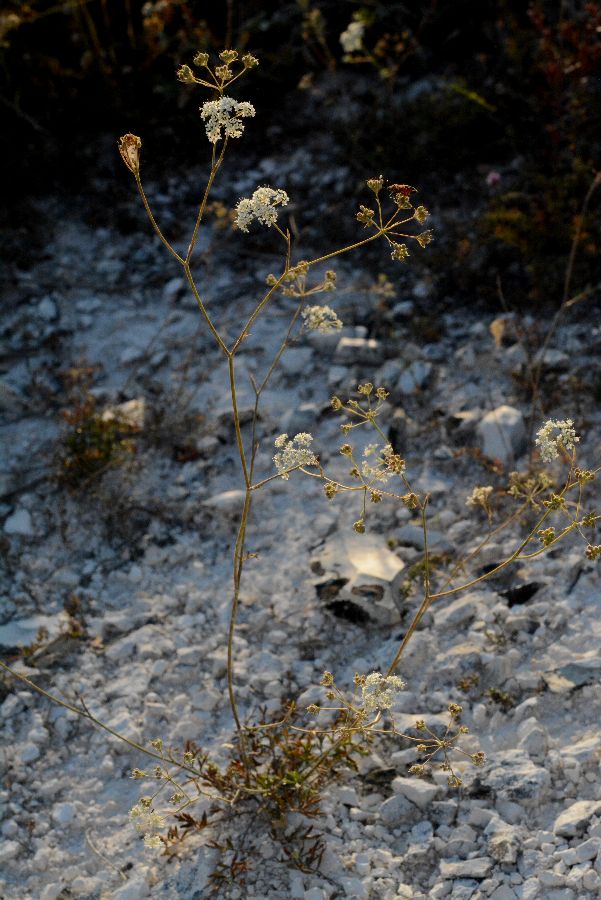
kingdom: Plantae
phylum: Tracheophyta
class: Magnoliopsida
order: Apiales
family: Apiaceae
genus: Seseli
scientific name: Seseli annuum
